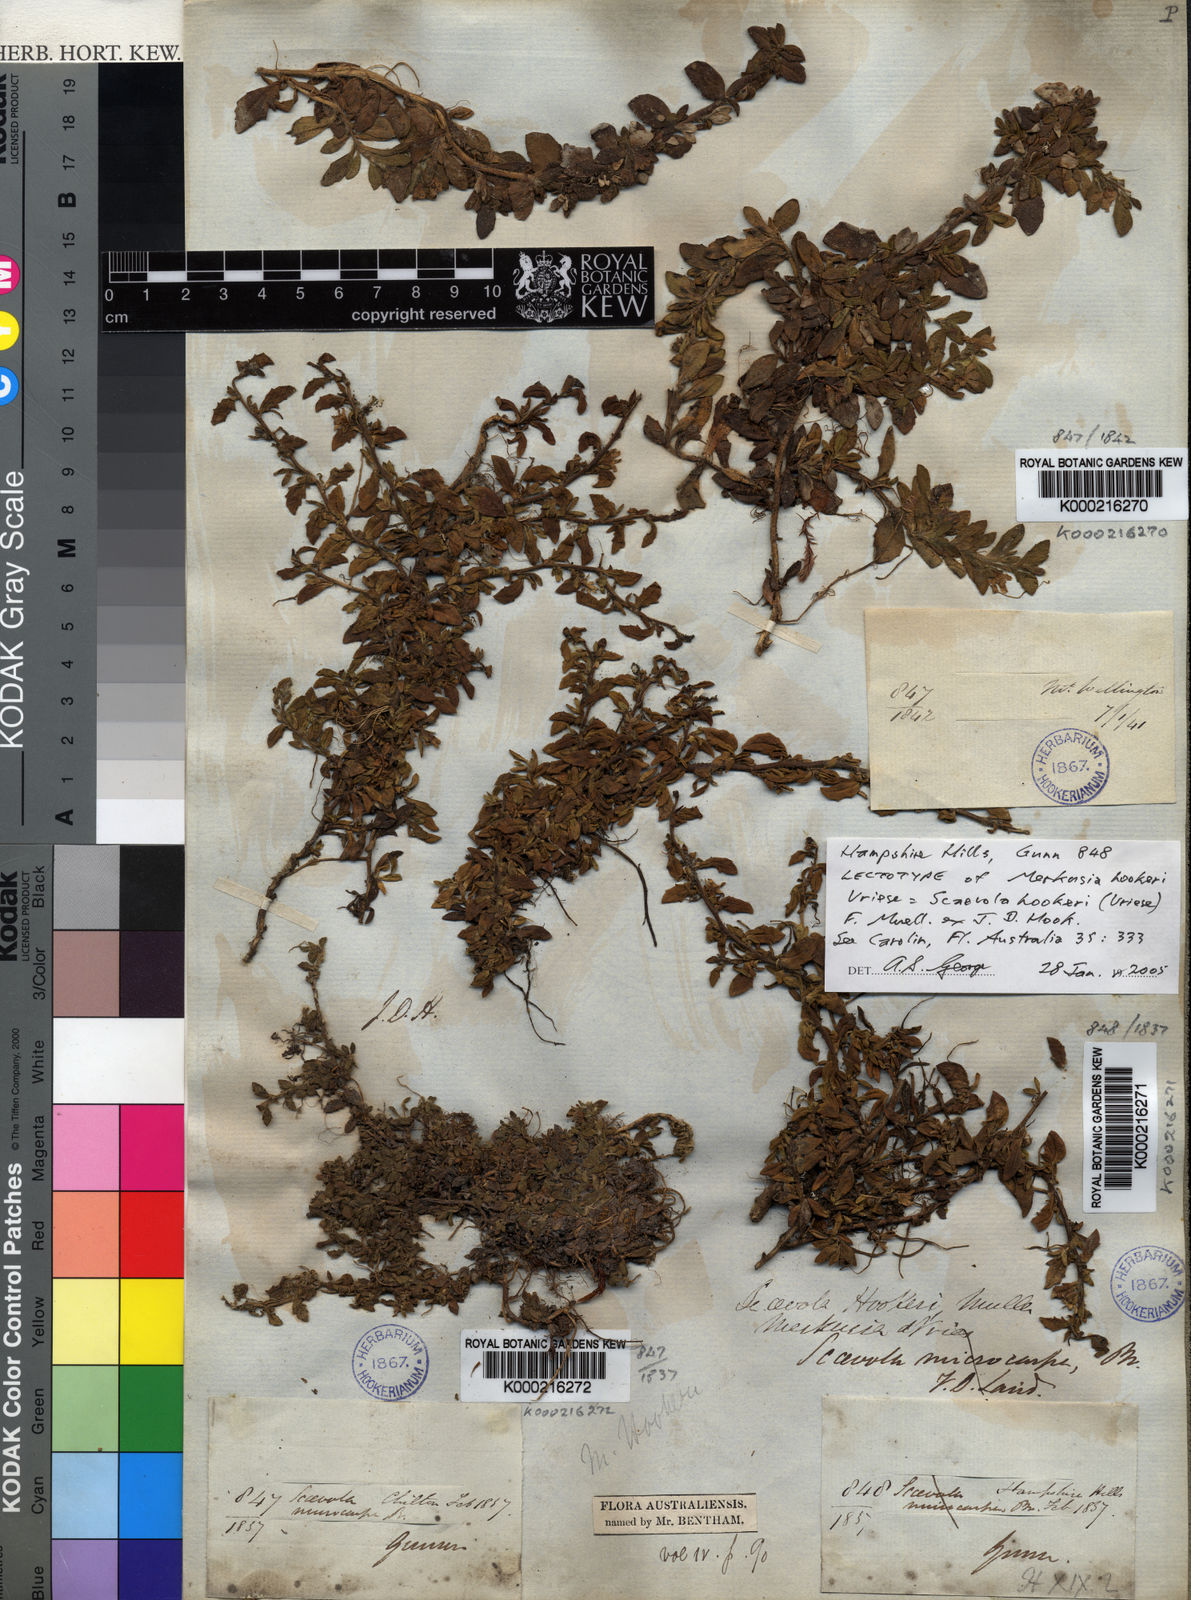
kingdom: Plantae
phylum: Tracheophyta
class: Magnoliopsida
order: Asterales
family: Goodeniaceae
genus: Scaevola
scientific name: Scaevola hookeri
